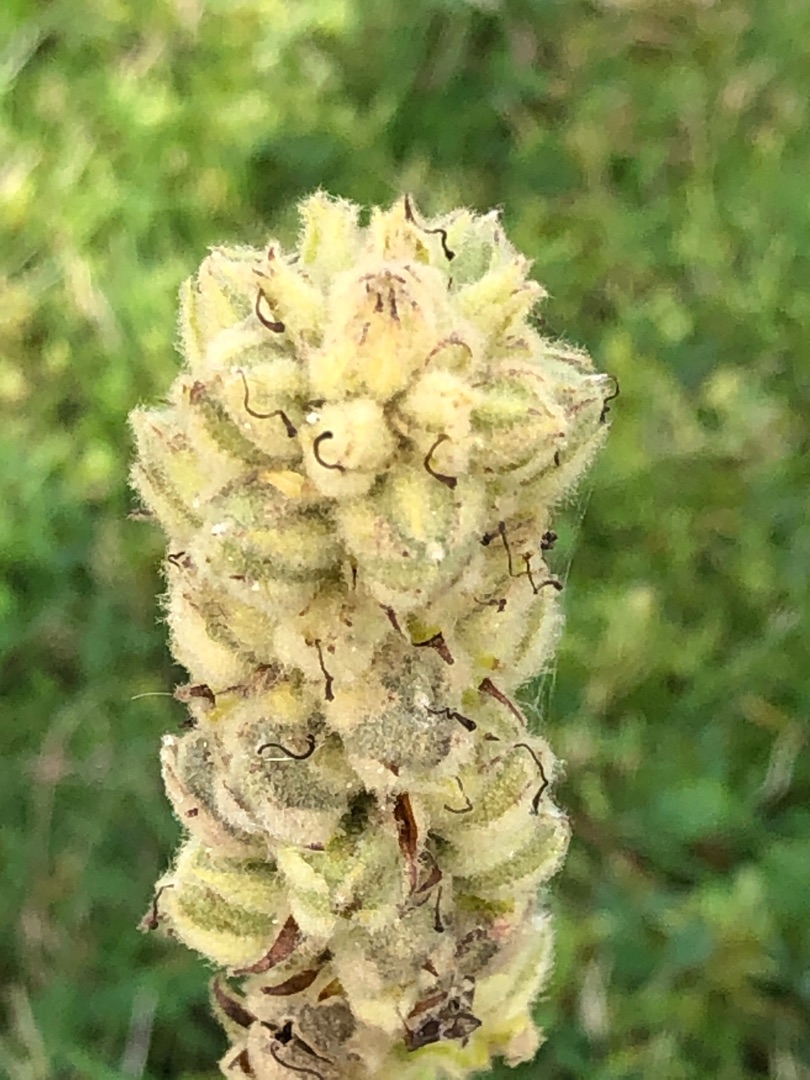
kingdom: Plantae
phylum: Tracheophyta
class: Magnoliopsida
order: Lamiales
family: Scrophulariaceae
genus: Verbascum
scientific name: Verbascum thapsus
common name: Filtbladet kongelys
